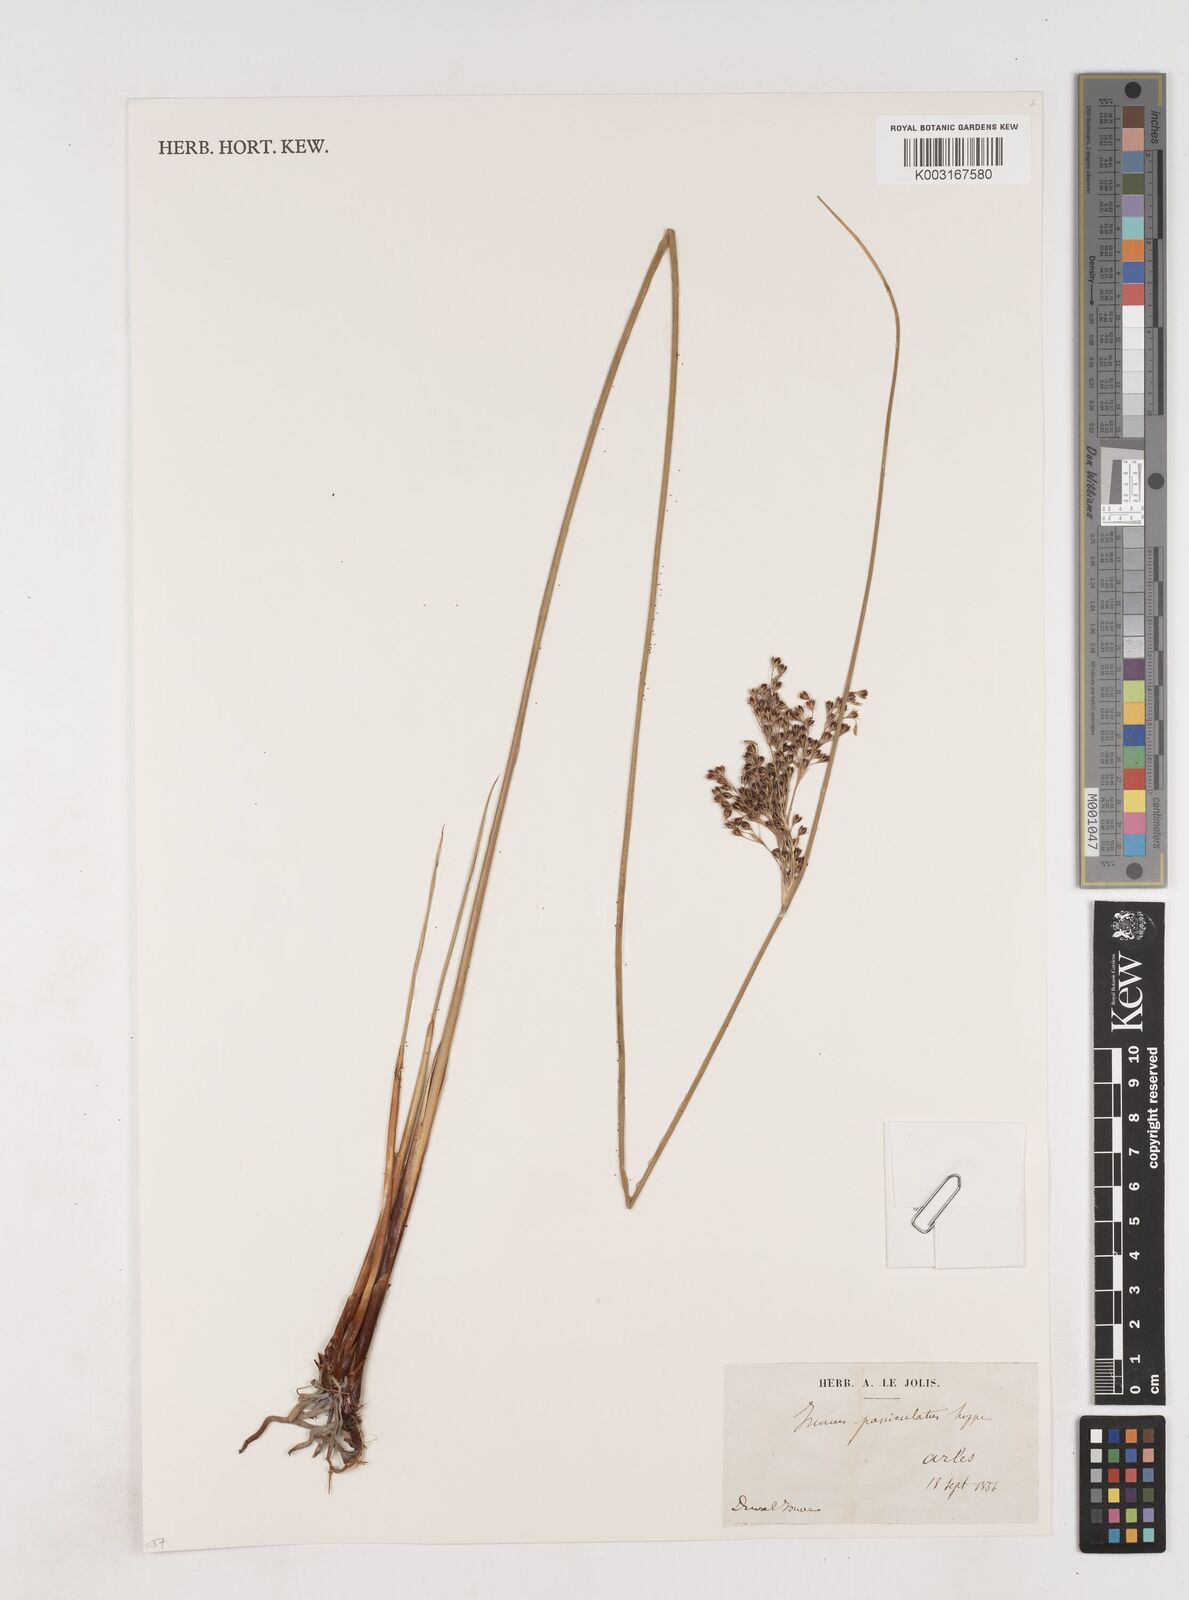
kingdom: Plantae
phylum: Tracheophyta
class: Liliopsida
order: Poales
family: Juncaceae
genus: Juncus
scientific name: Juncus inflexus
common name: Hard rush
